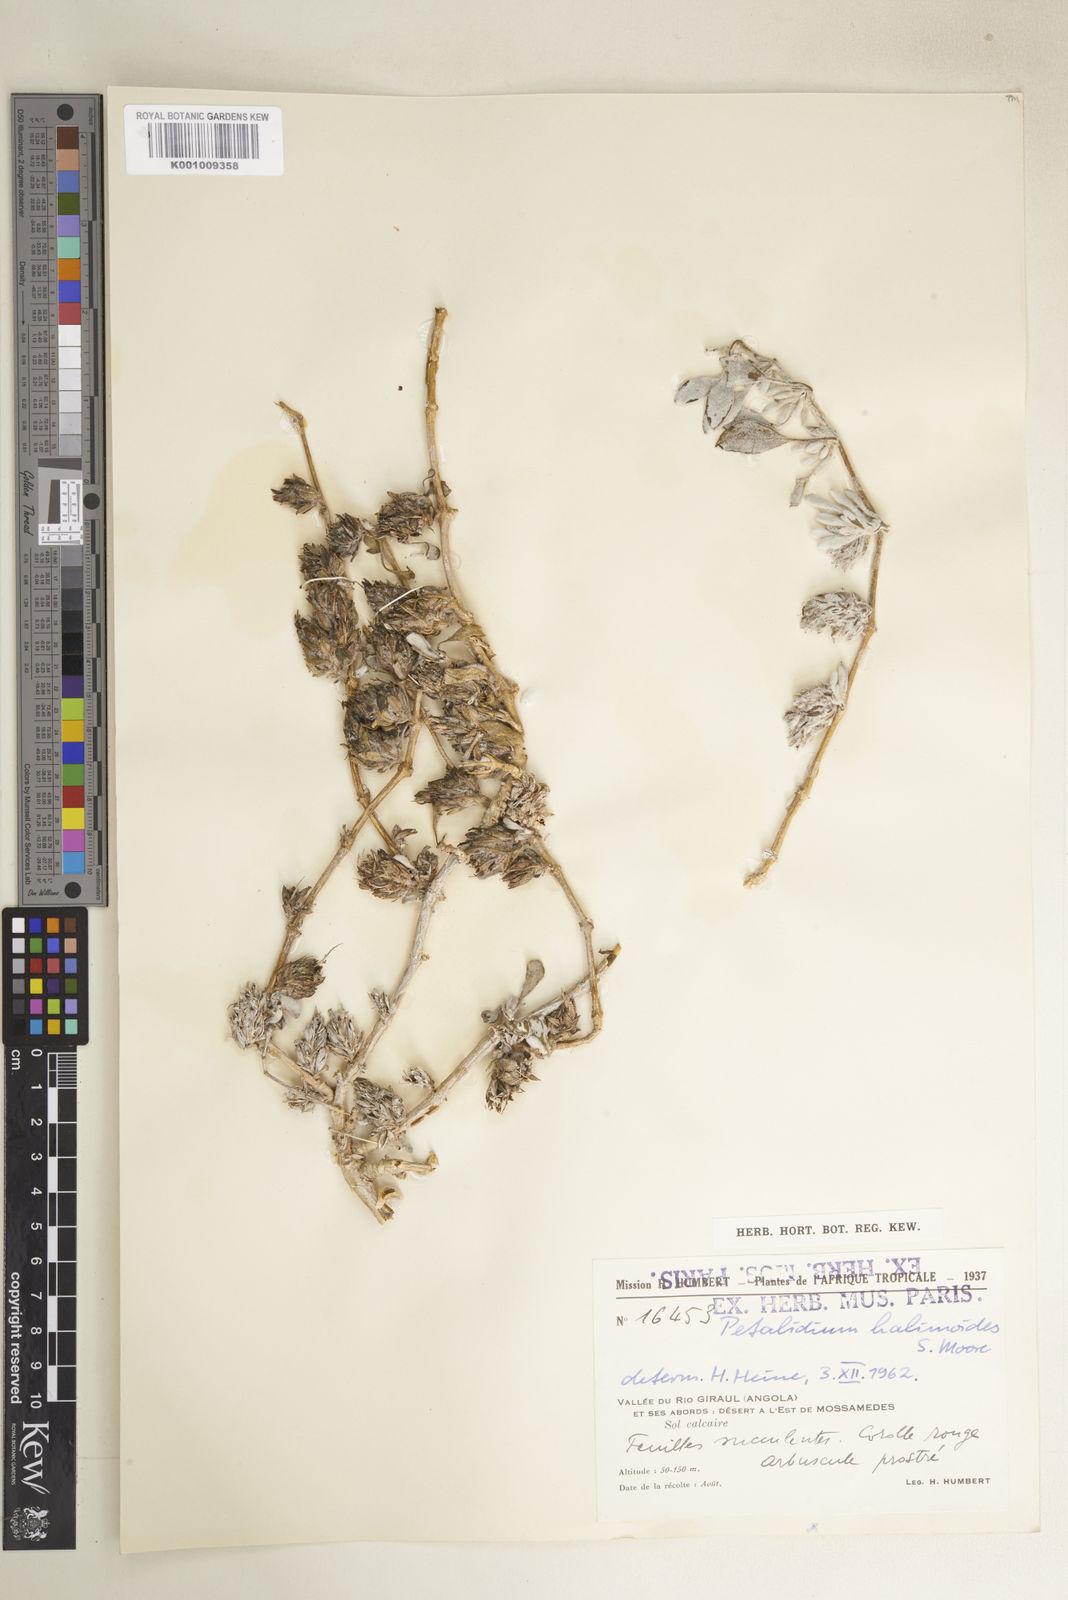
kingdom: Plantae
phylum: Tracheophyta
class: Magnoliopsida
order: Lamiales
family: Acanthaceae
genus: Petalidium
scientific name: Petalidium halimoides
